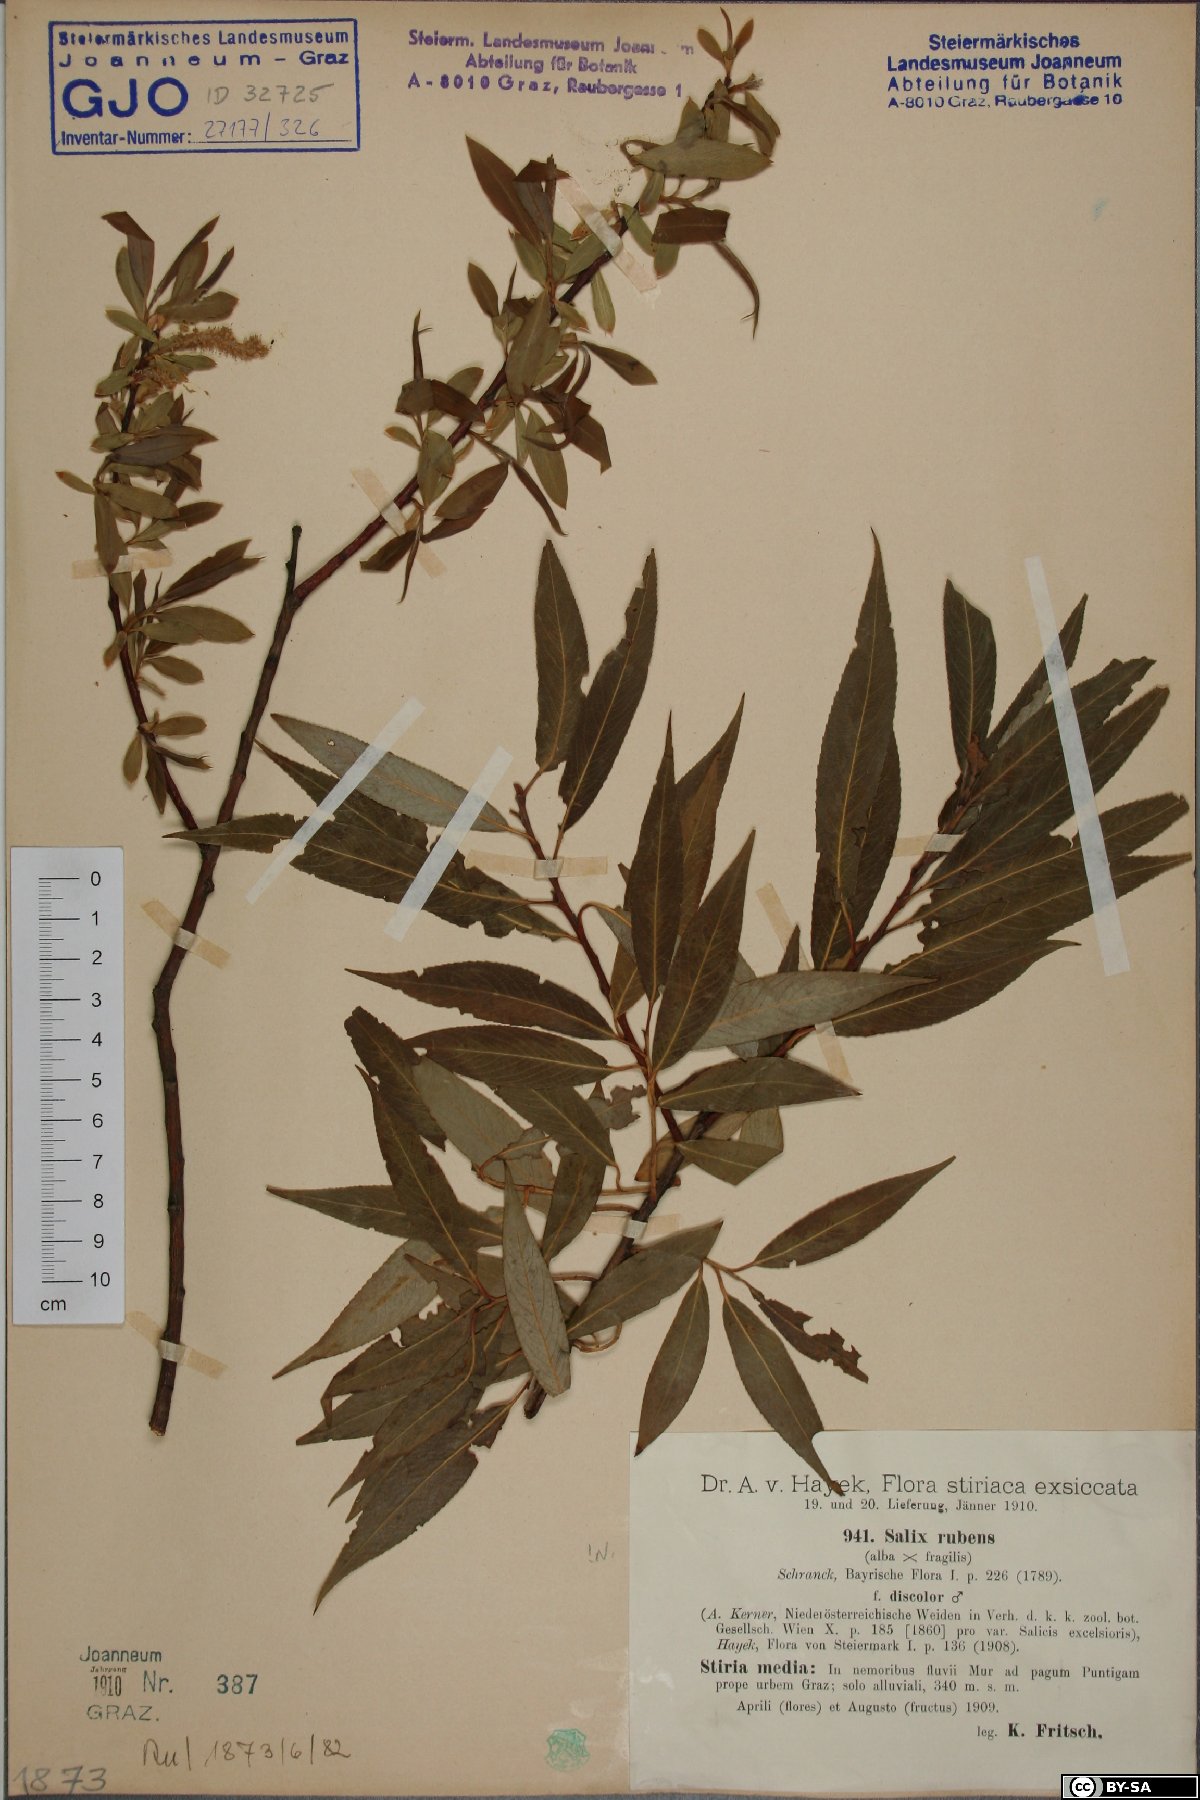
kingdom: Plantae
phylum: Tracheophyta
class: Magnoliopsida
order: Malpighiales
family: Salicaceae
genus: Salix
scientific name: Salix rubens
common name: Hybrid crack willow
